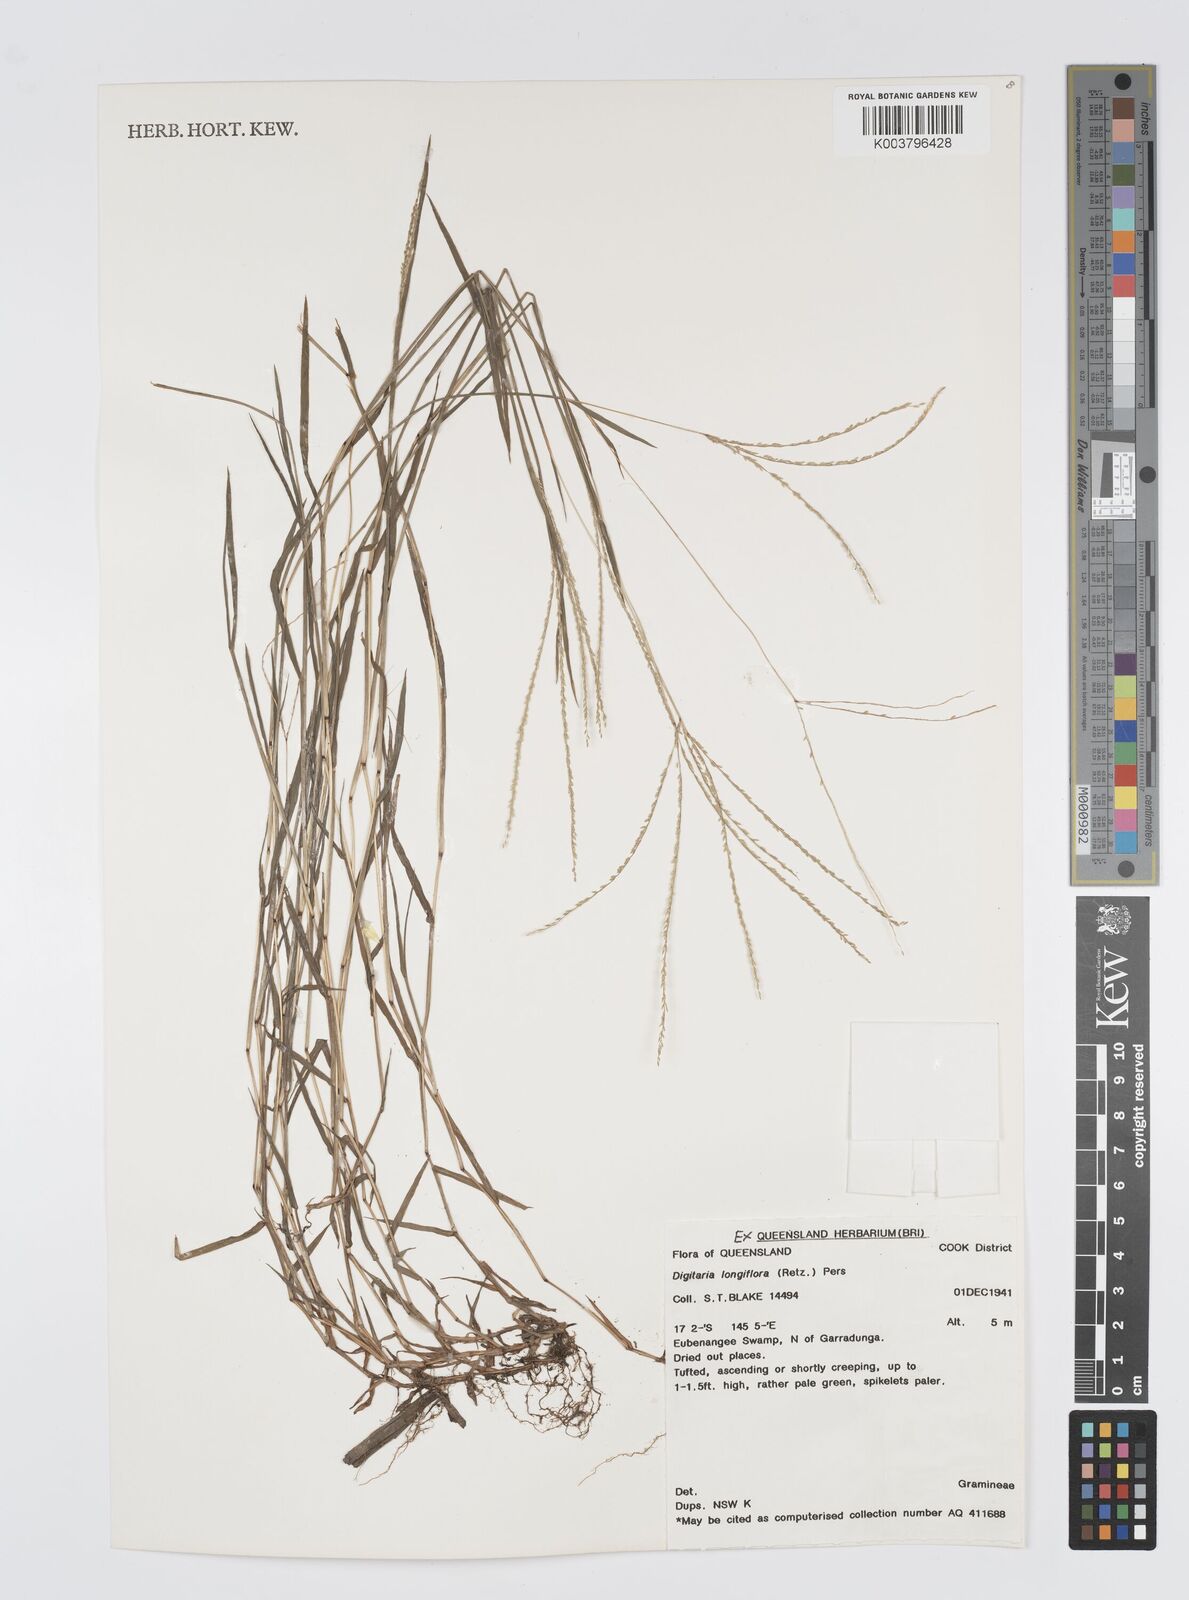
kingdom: Plantae
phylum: Tracheophyta
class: Liliopsida
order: Poales
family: Poaceae
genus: Digitaria
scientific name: Digitaria longiflora
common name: Wire crabgrass
